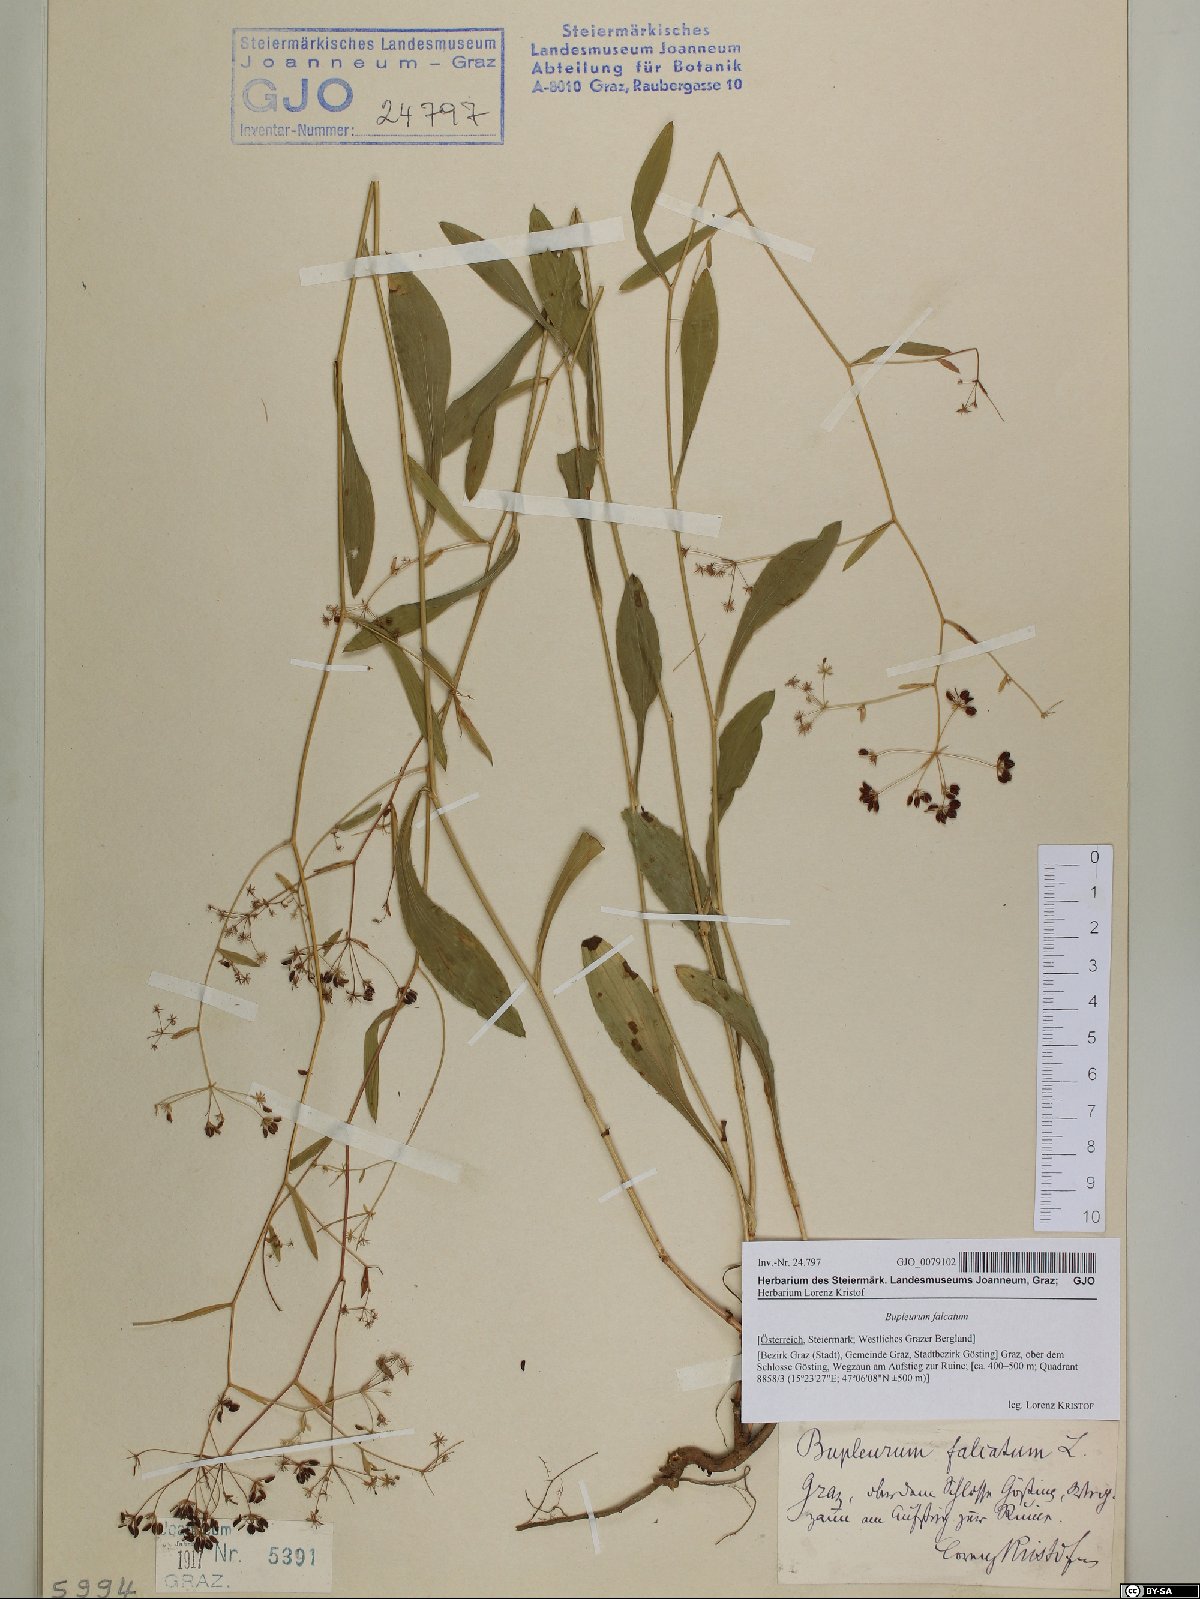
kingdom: Plantae
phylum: Tracheophyta
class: Magnoliopsida
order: Apiales
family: Apiaceae
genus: Bupleurum
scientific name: Bupleurum falcatum
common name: Sickle-leaved hare's-ear
